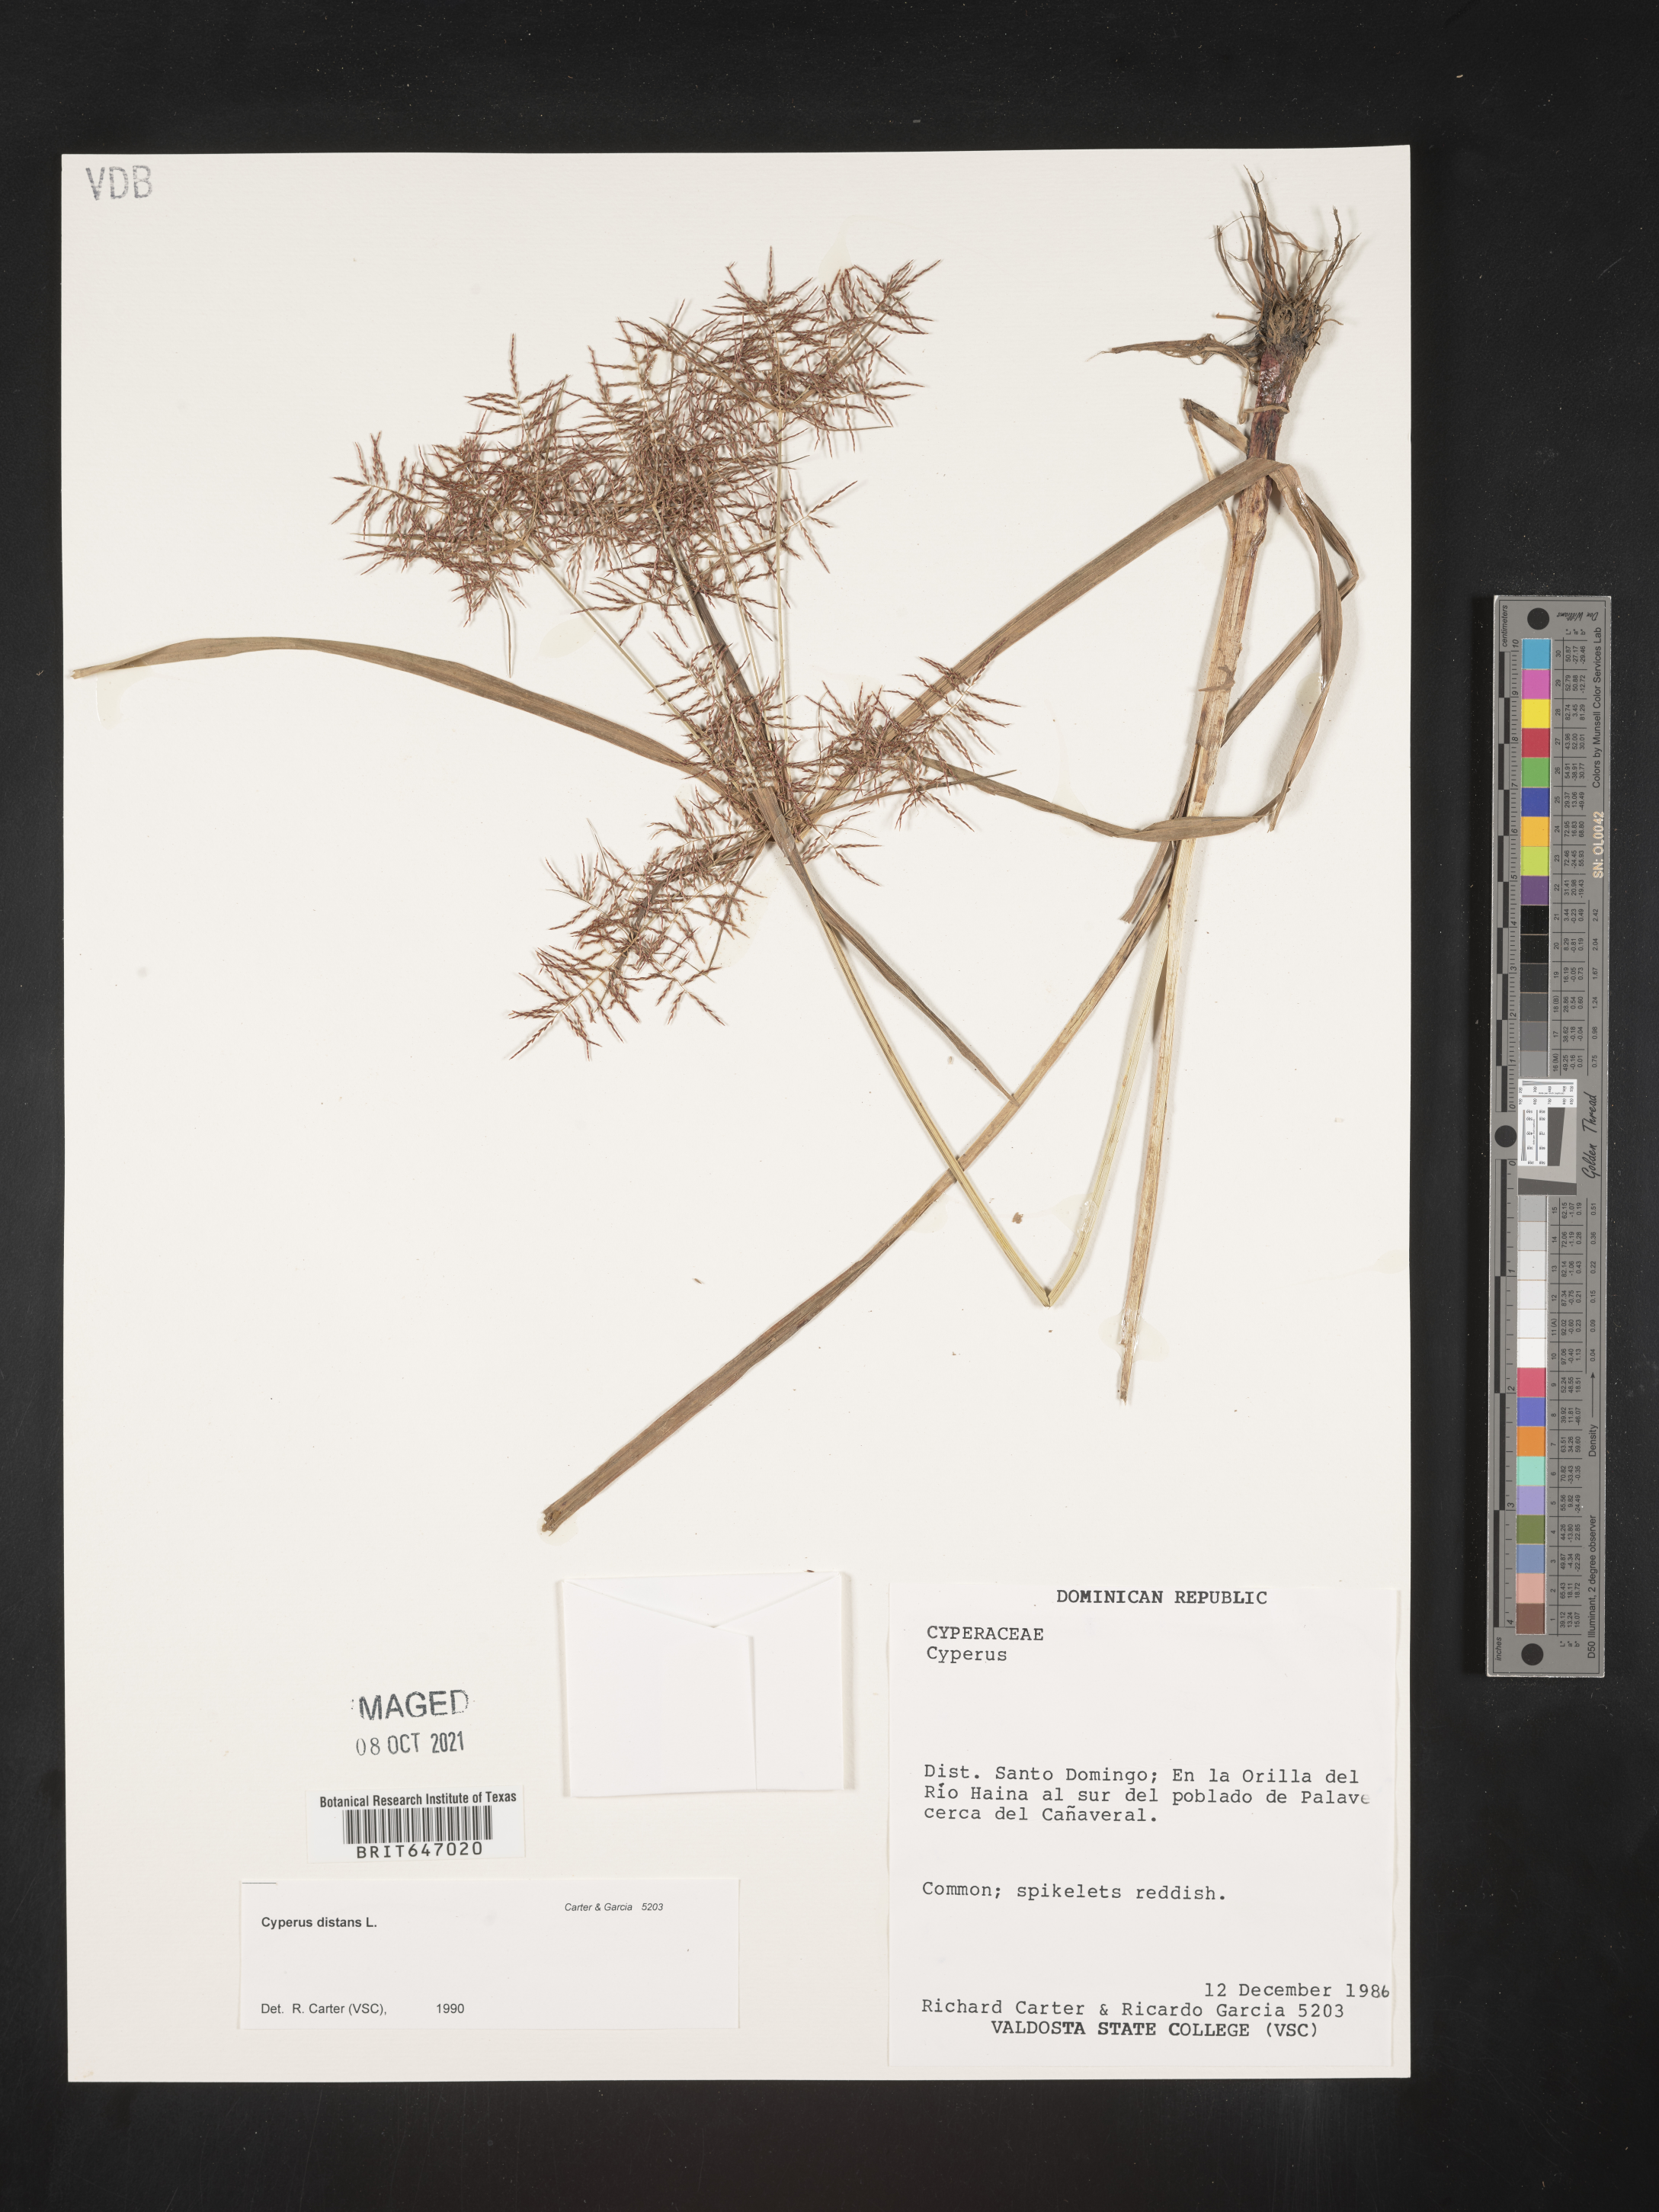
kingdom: Plantae
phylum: Tracheophyta
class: Liliopsida
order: Poales
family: Cyperaceae
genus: Cyperus
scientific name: Cyperus distans
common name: Slender cyperus
